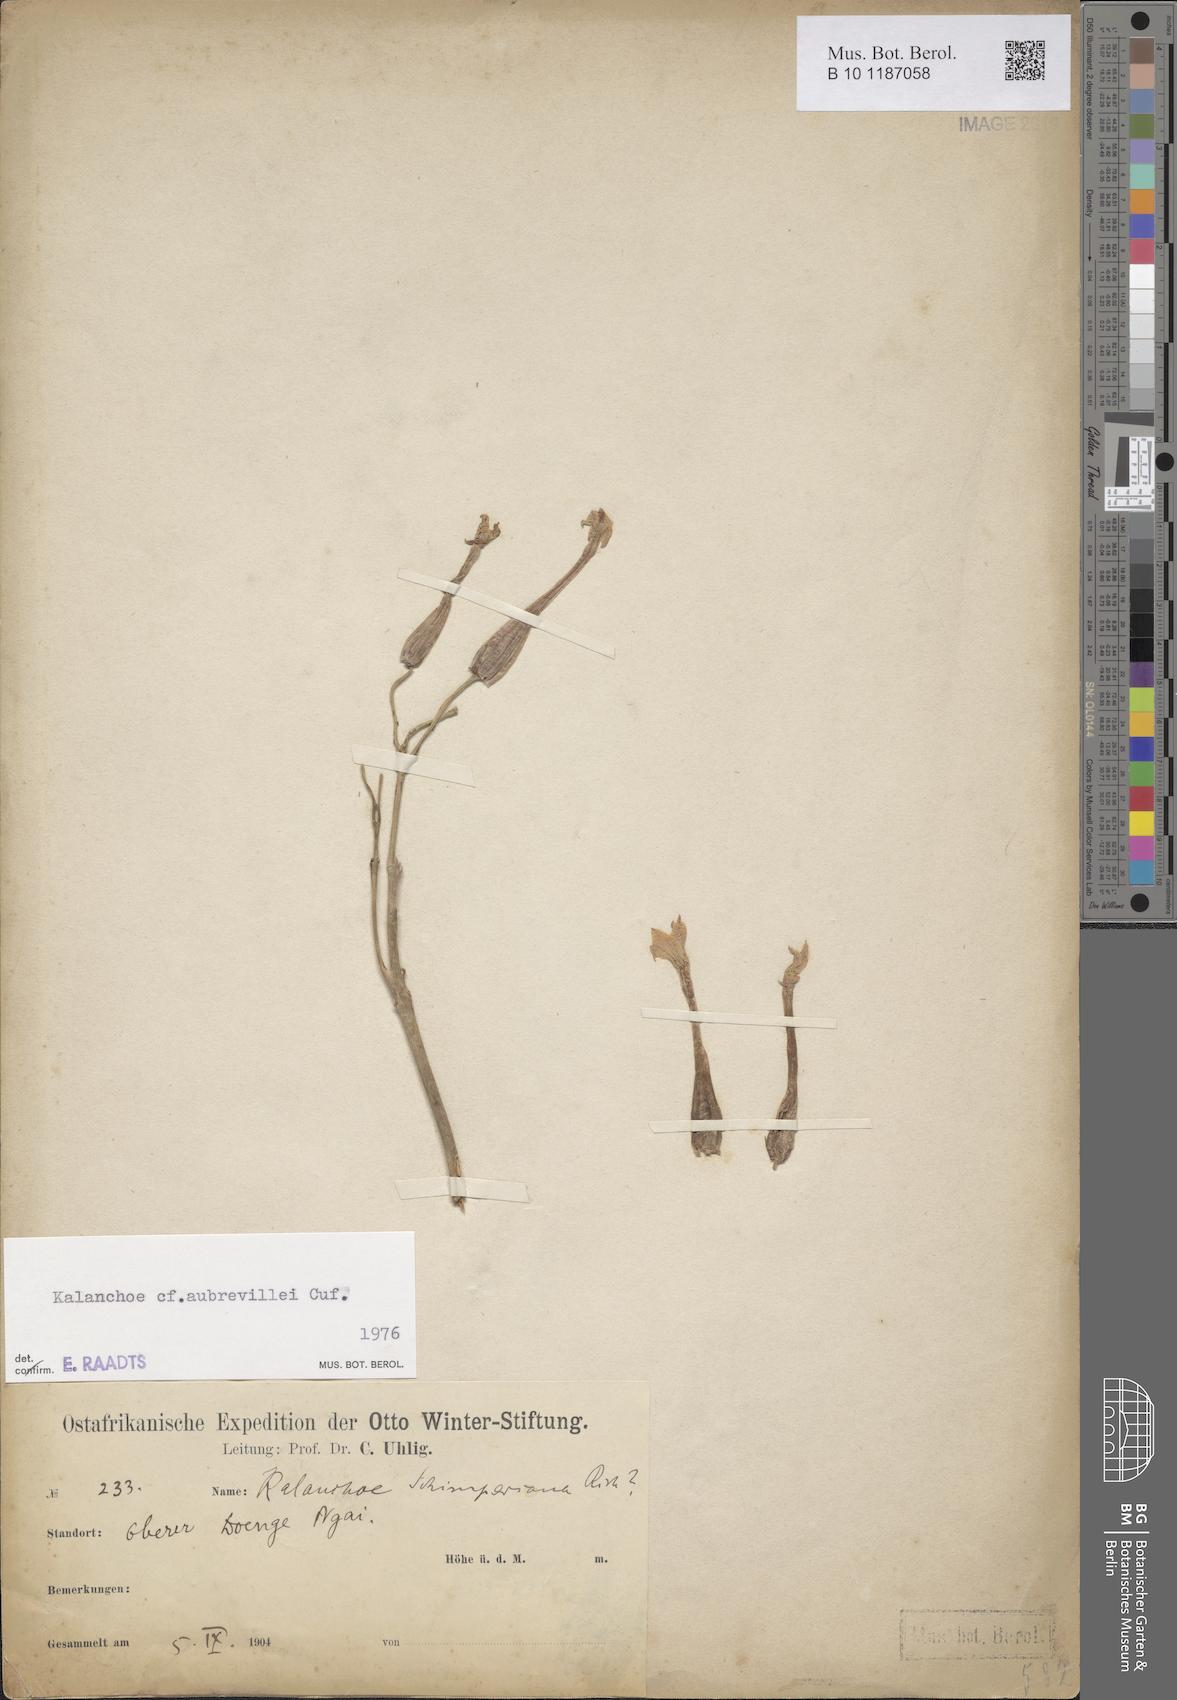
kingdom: Plantae
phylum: Tracheophyta
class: Magnoliopsida
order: Saxifragales
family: Crassulaceae
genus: Kalanchoe
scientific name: Kalanchoe aubrevillei
